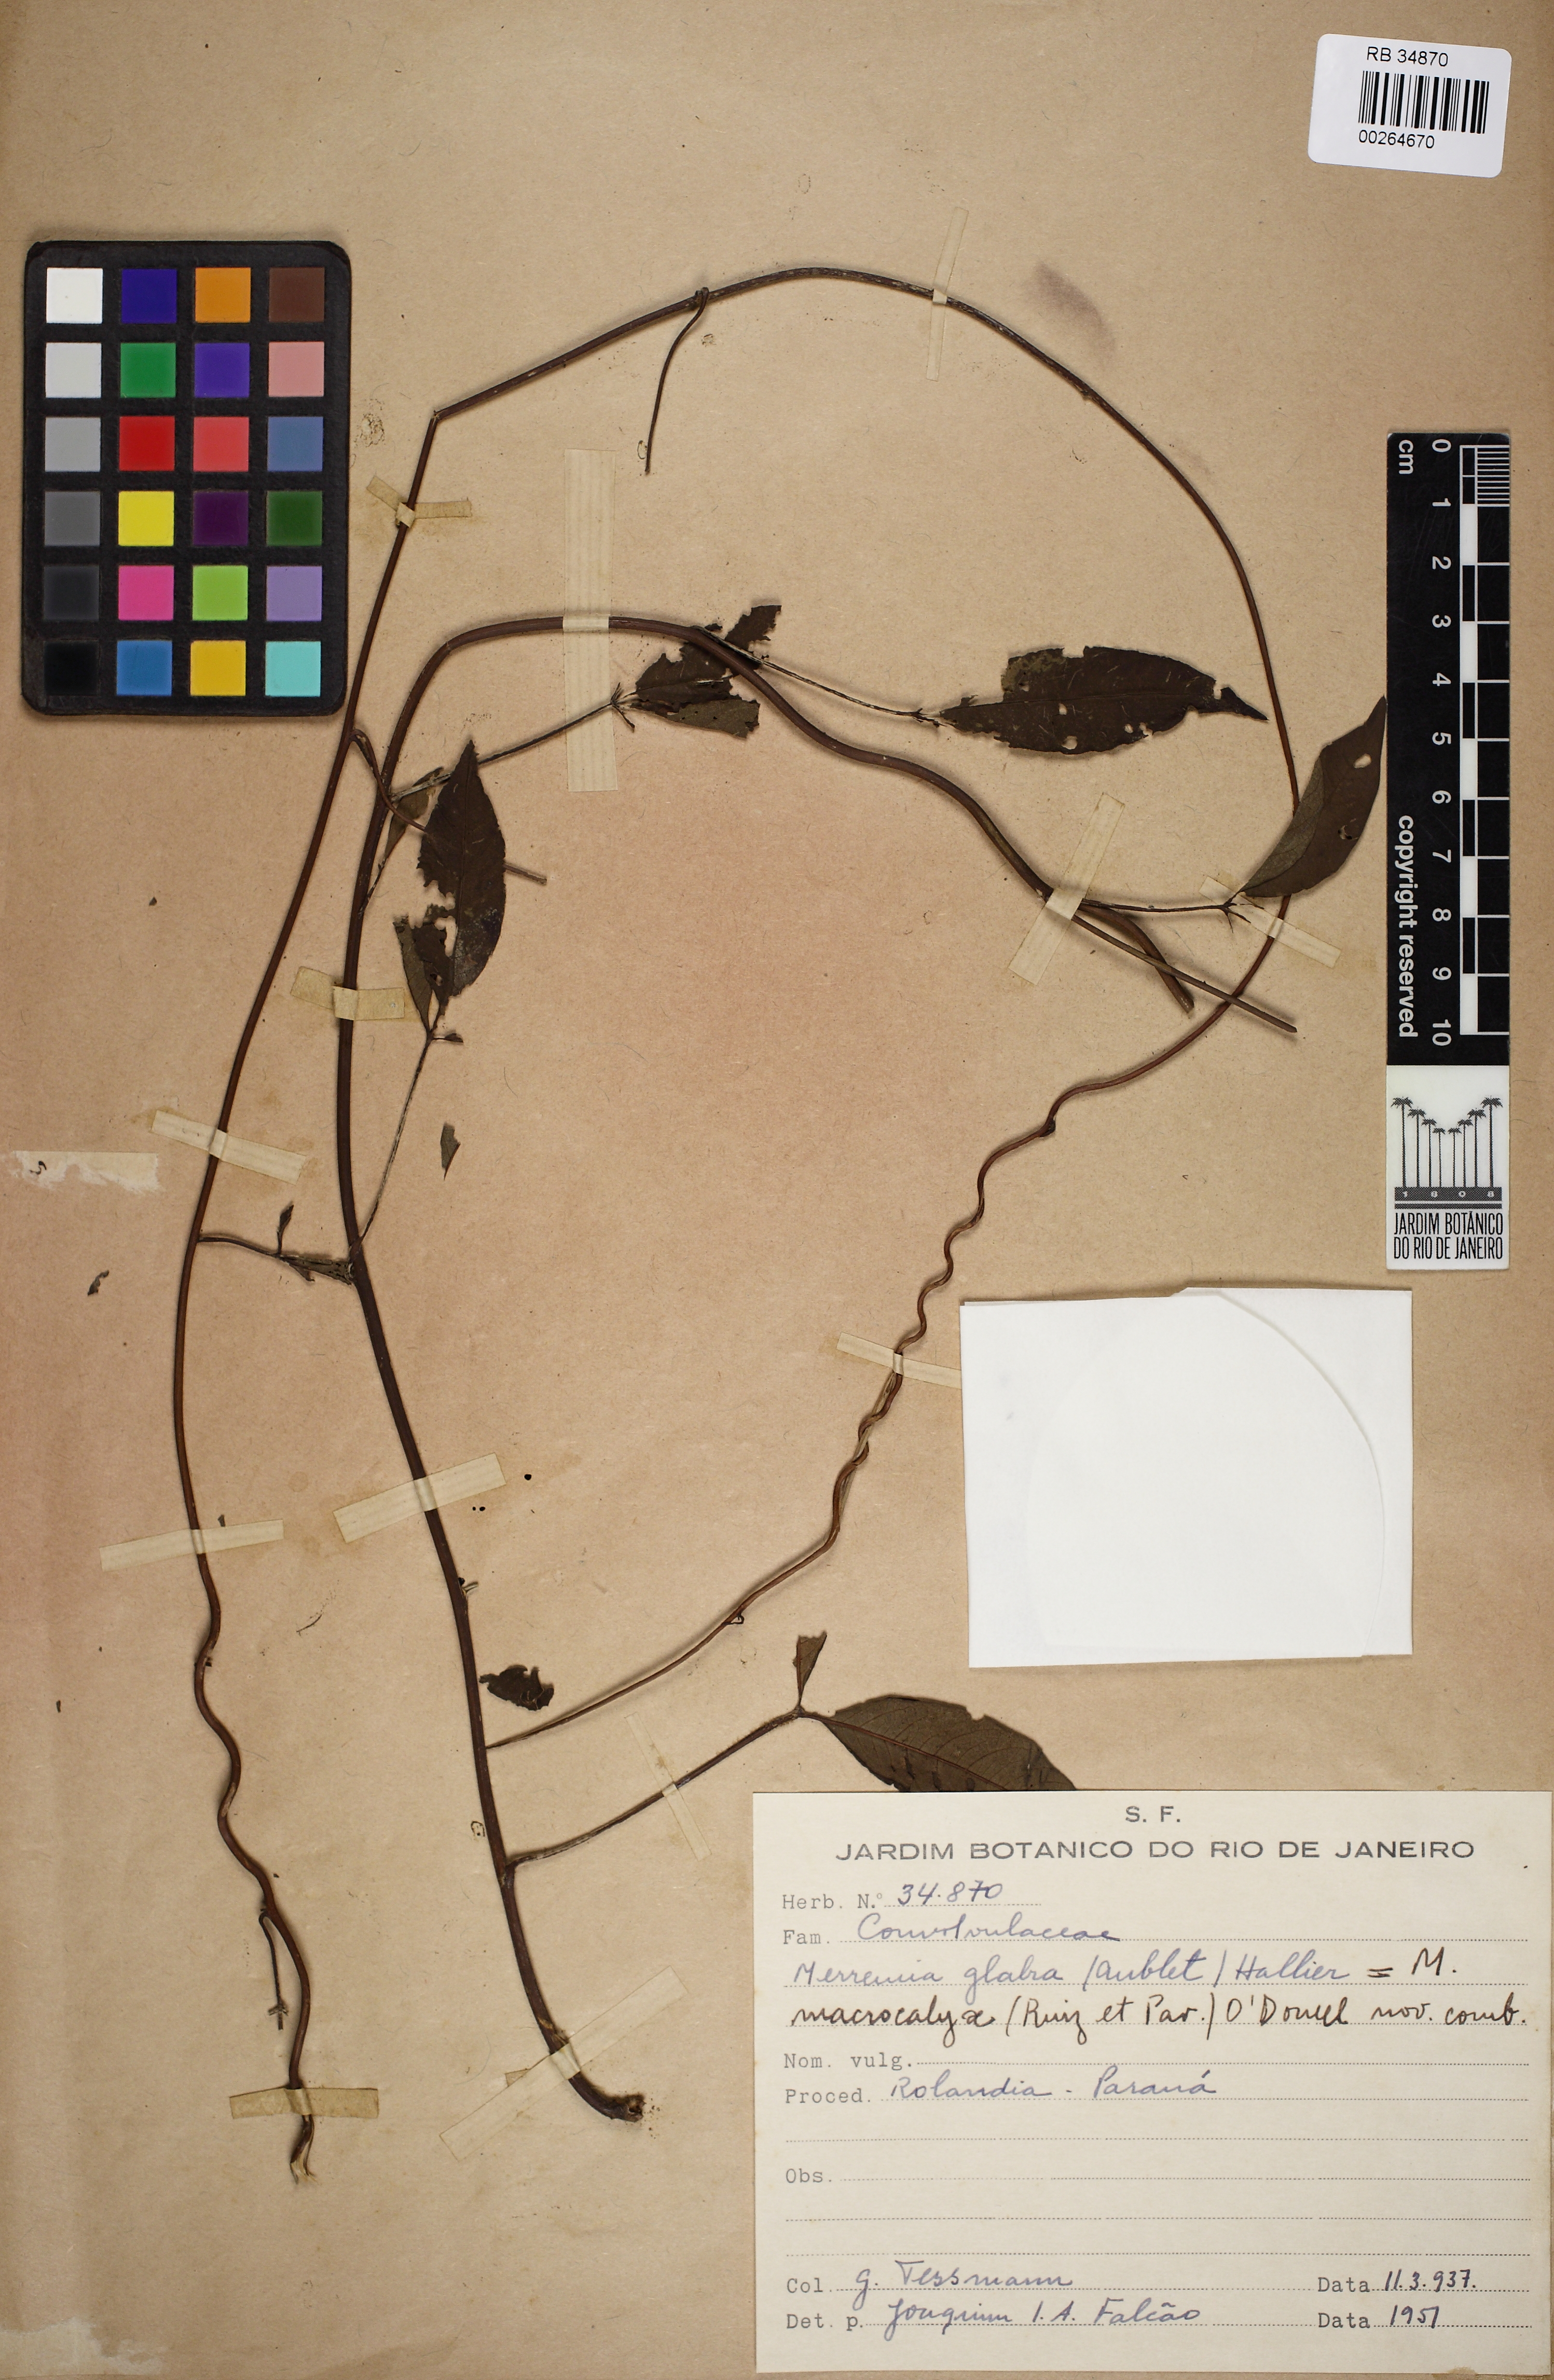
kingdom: Plantae
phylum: Tracheophyta
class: Magnoliopsida
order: Solanales
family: Convolvulaceae
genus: Distimake
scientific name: Distimake macrocalyx
